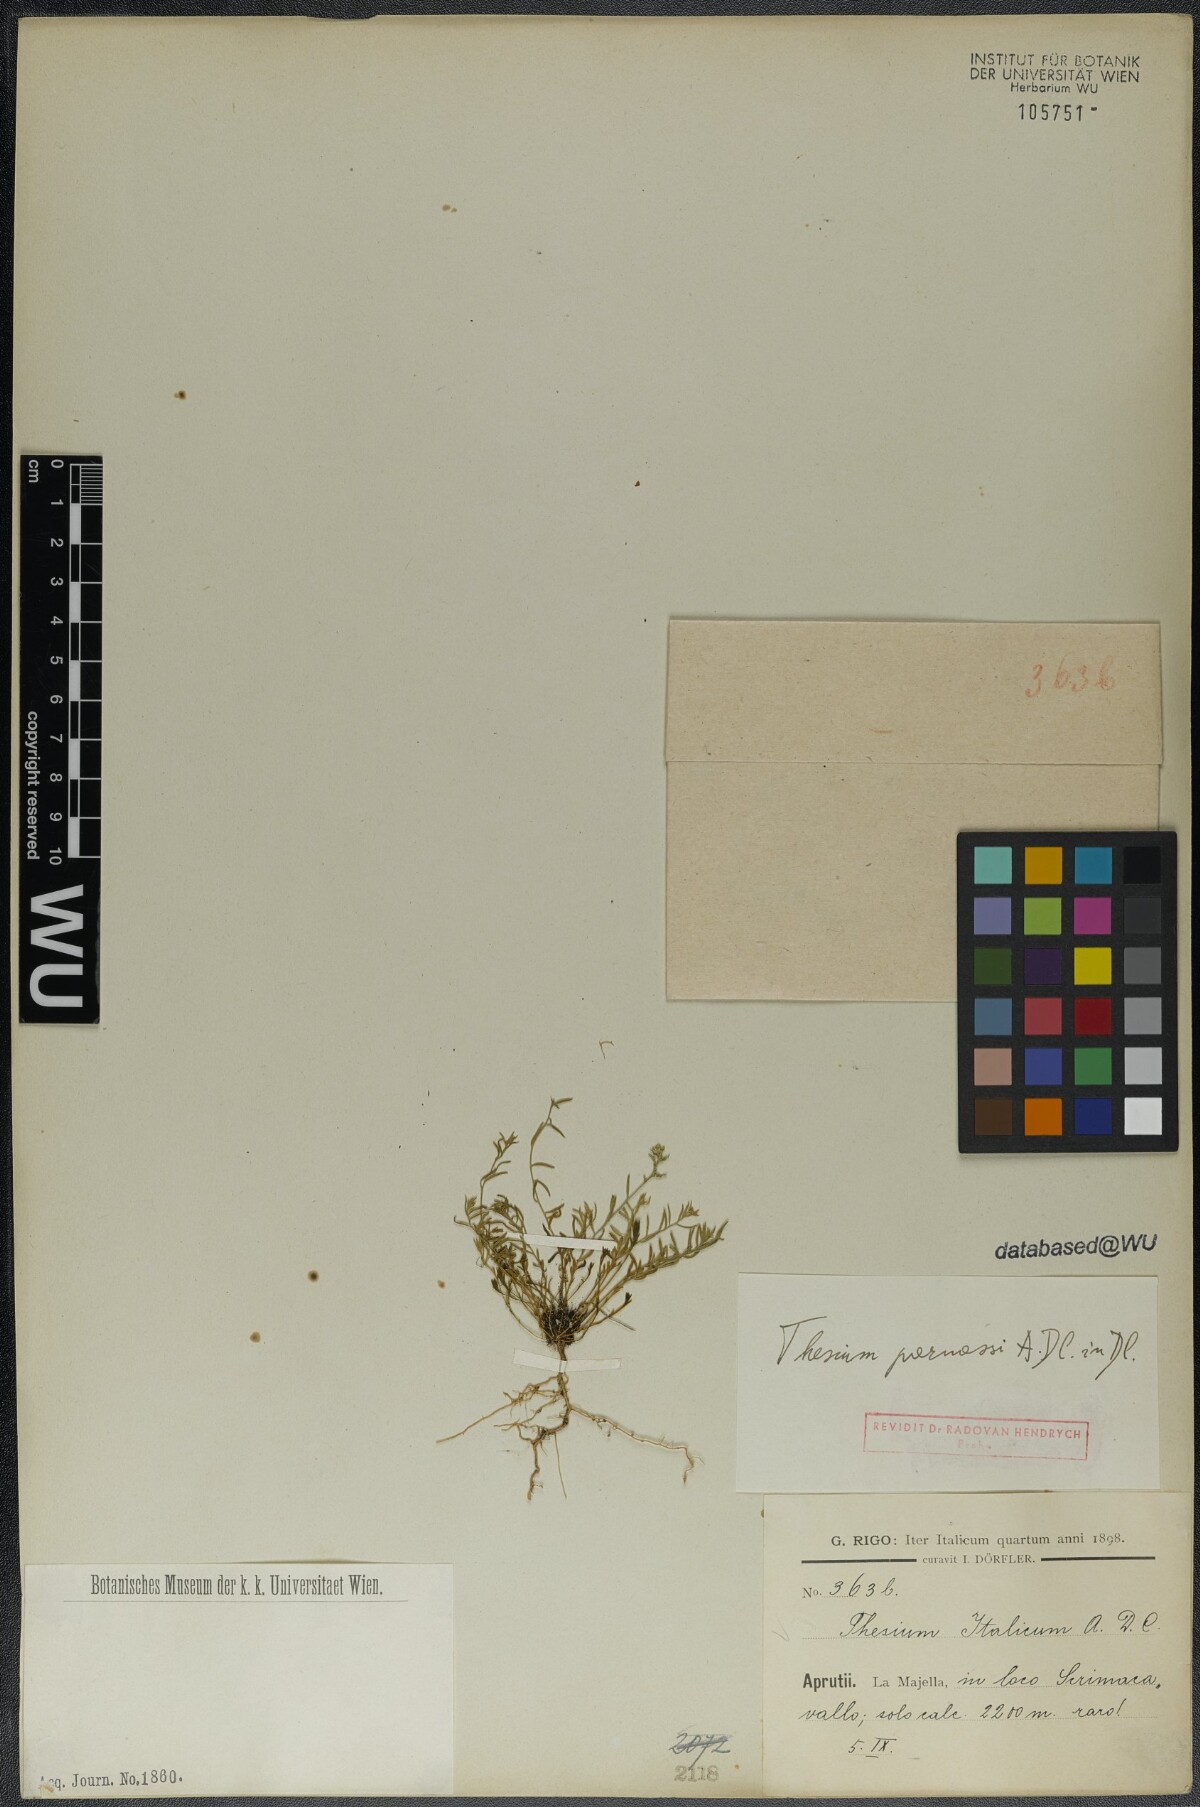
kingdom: Plantae
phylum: Tracheophyta
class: Magnoliopsida
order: Santalales
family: Thesiaceae
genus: Thesium
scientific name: Thesium parnassi
